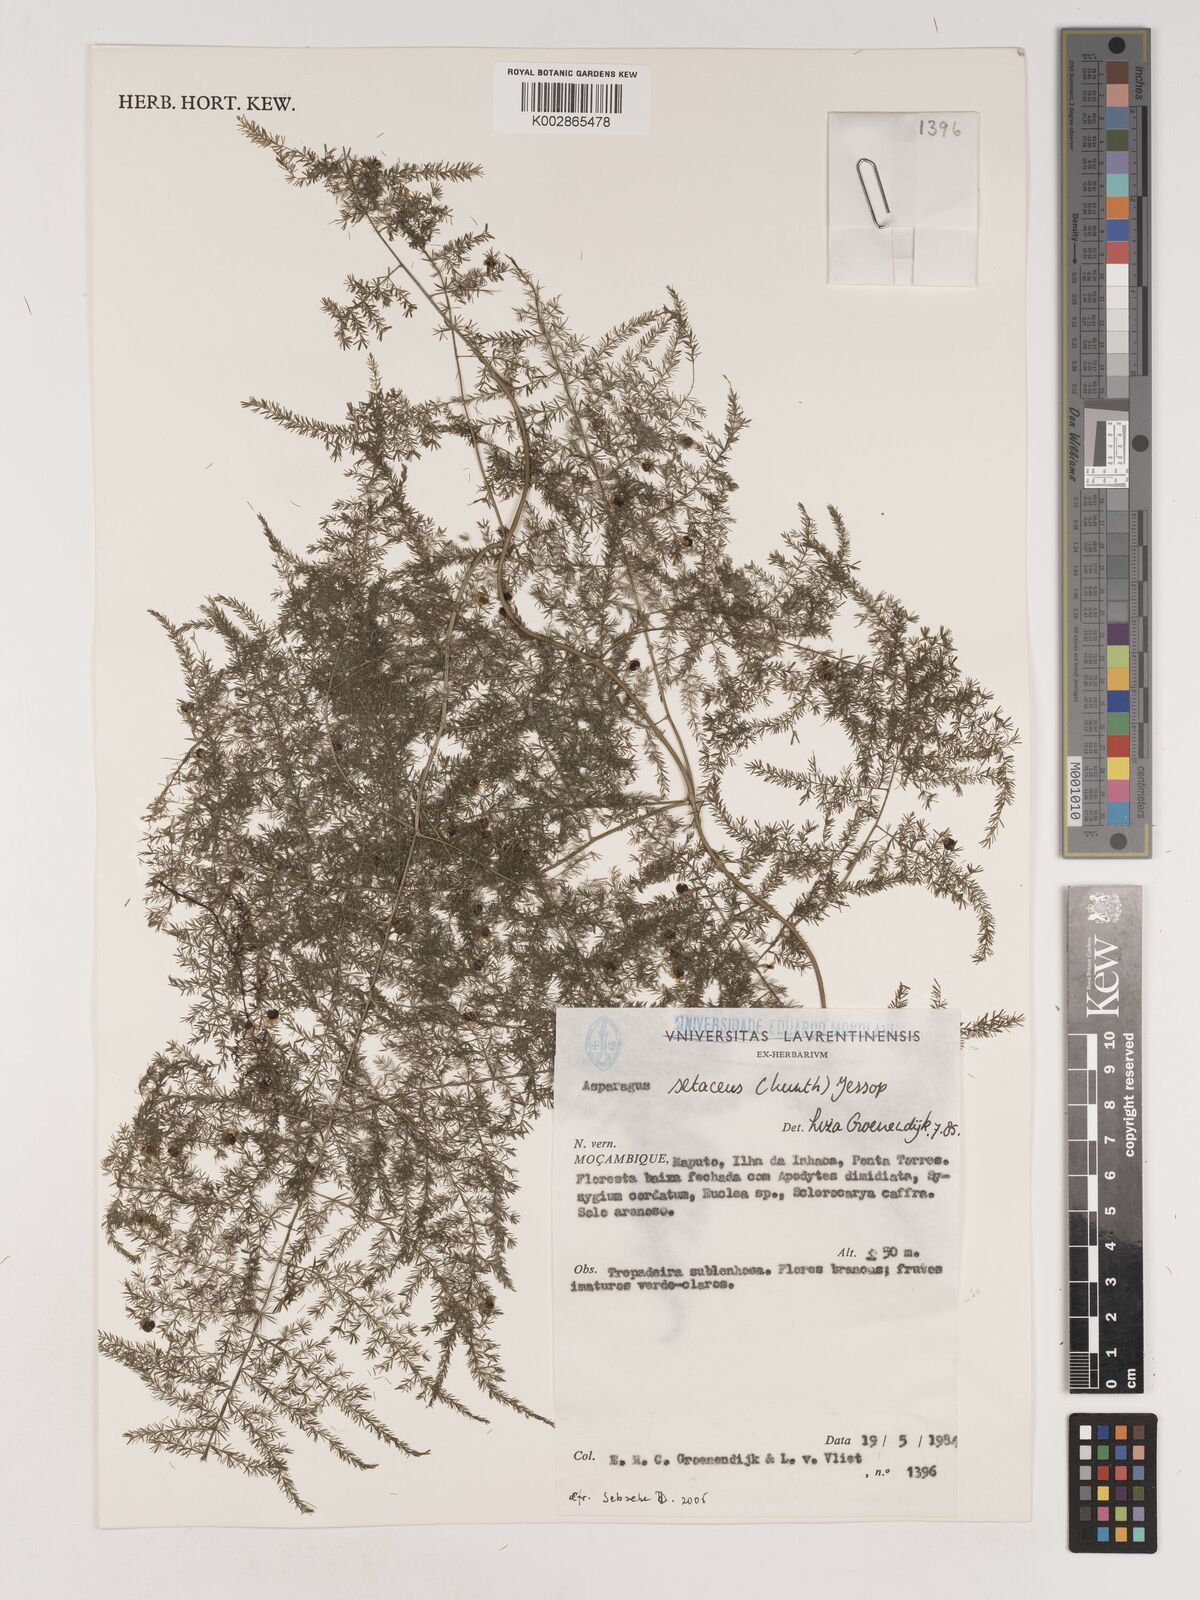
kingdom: Plantae
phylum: Tracheophyta
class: Liliopsida
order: Asparagales
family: Asparagaceae
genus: Asparagus
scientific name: Asparagus setaceus
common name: Common asparagus fern
